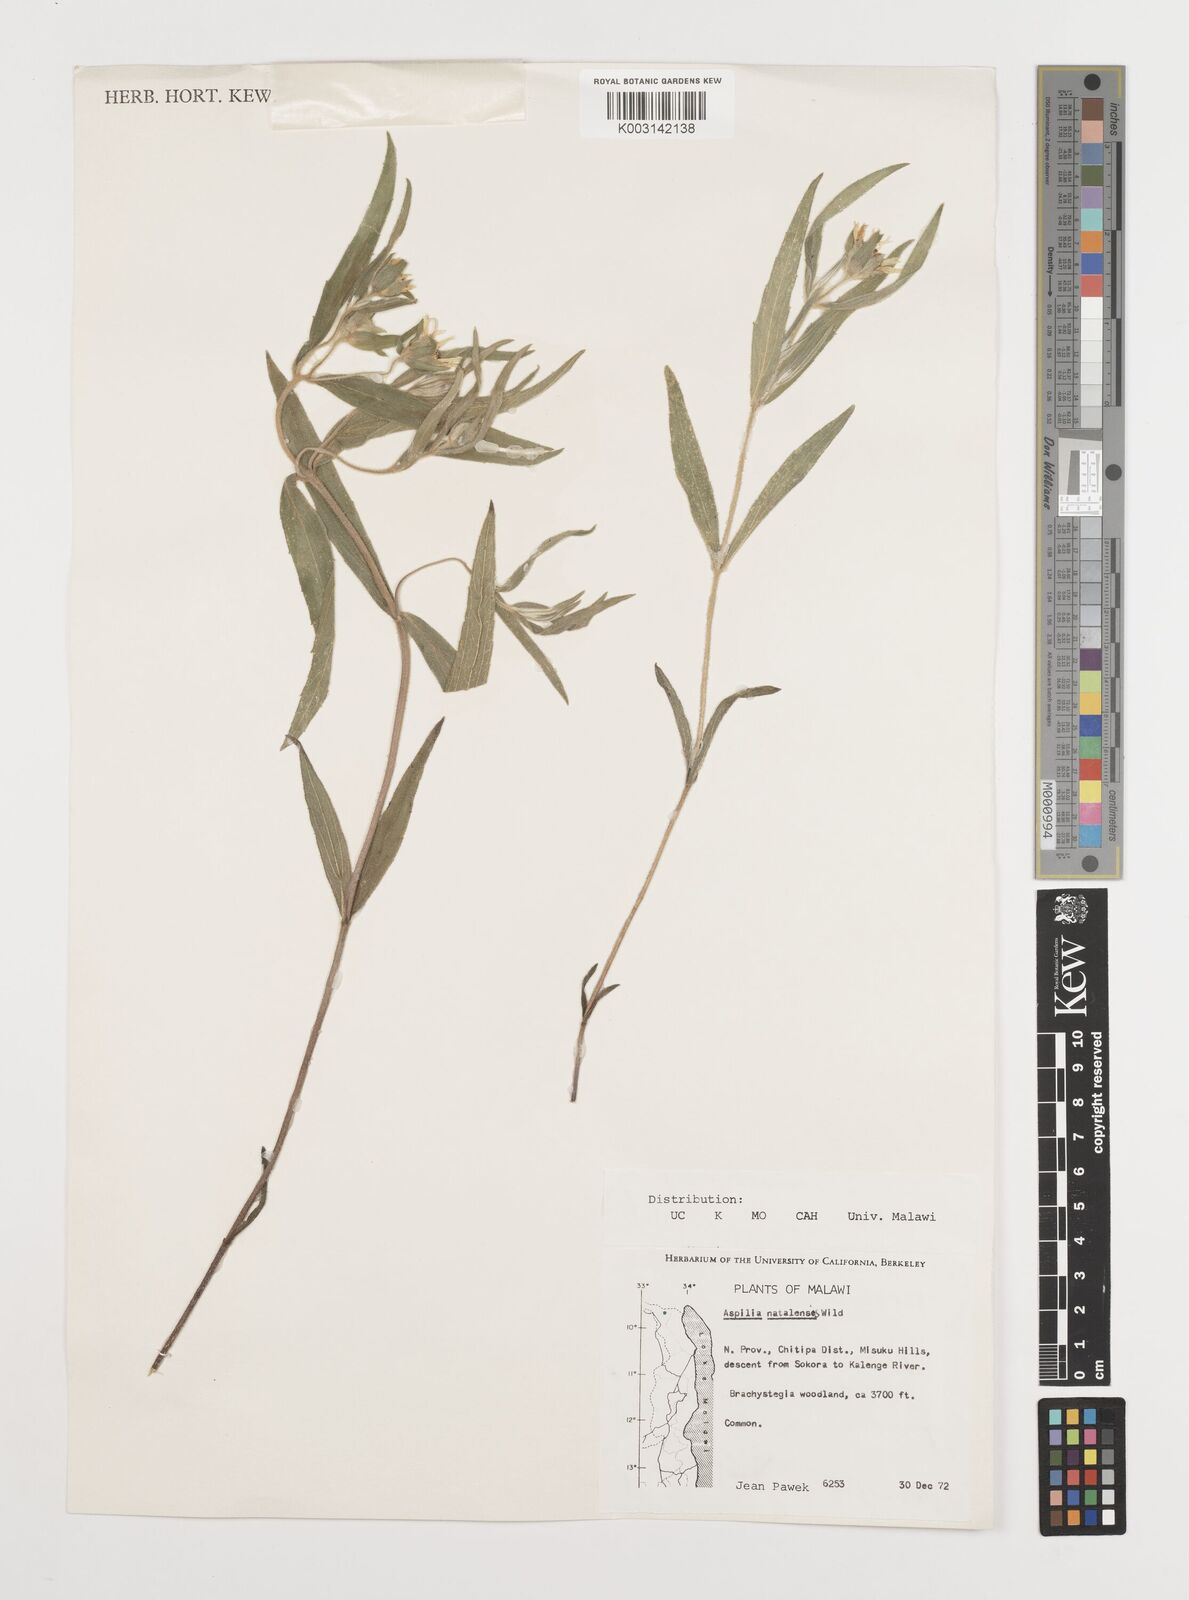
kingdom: Plantae
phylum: Tracheophyta
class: Magnoliopsida
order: Asterales
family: Asteraceae
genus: Aspilia
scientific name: Aspilia natalensis
